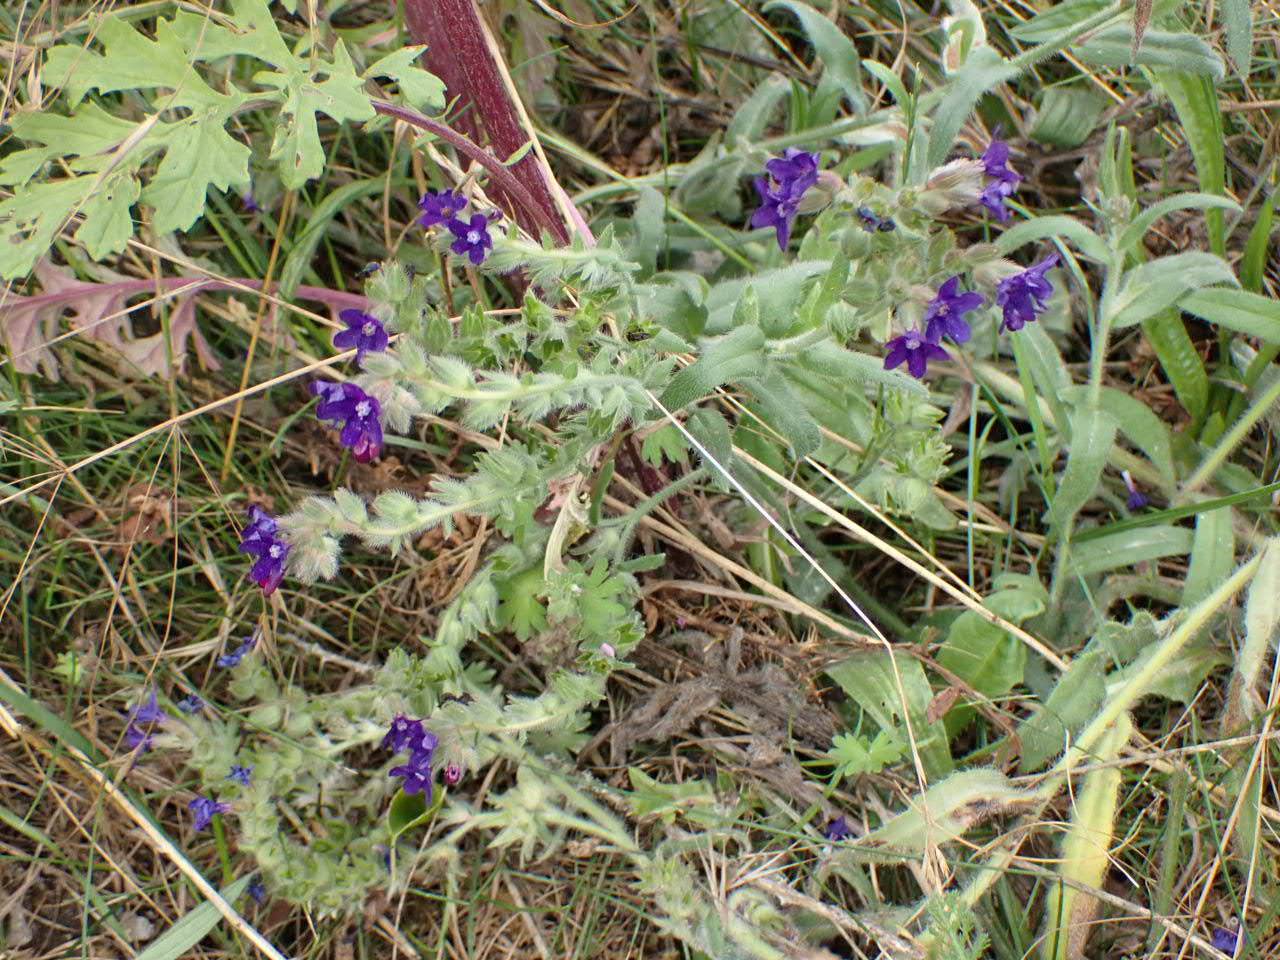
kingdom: Plantae
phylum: Tracheophyta
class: Magnoliopsida
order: Boraginales
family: Boraginaceae
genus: Anchusa
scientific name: Anchusa officinalis
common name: Læge-oksetunge
